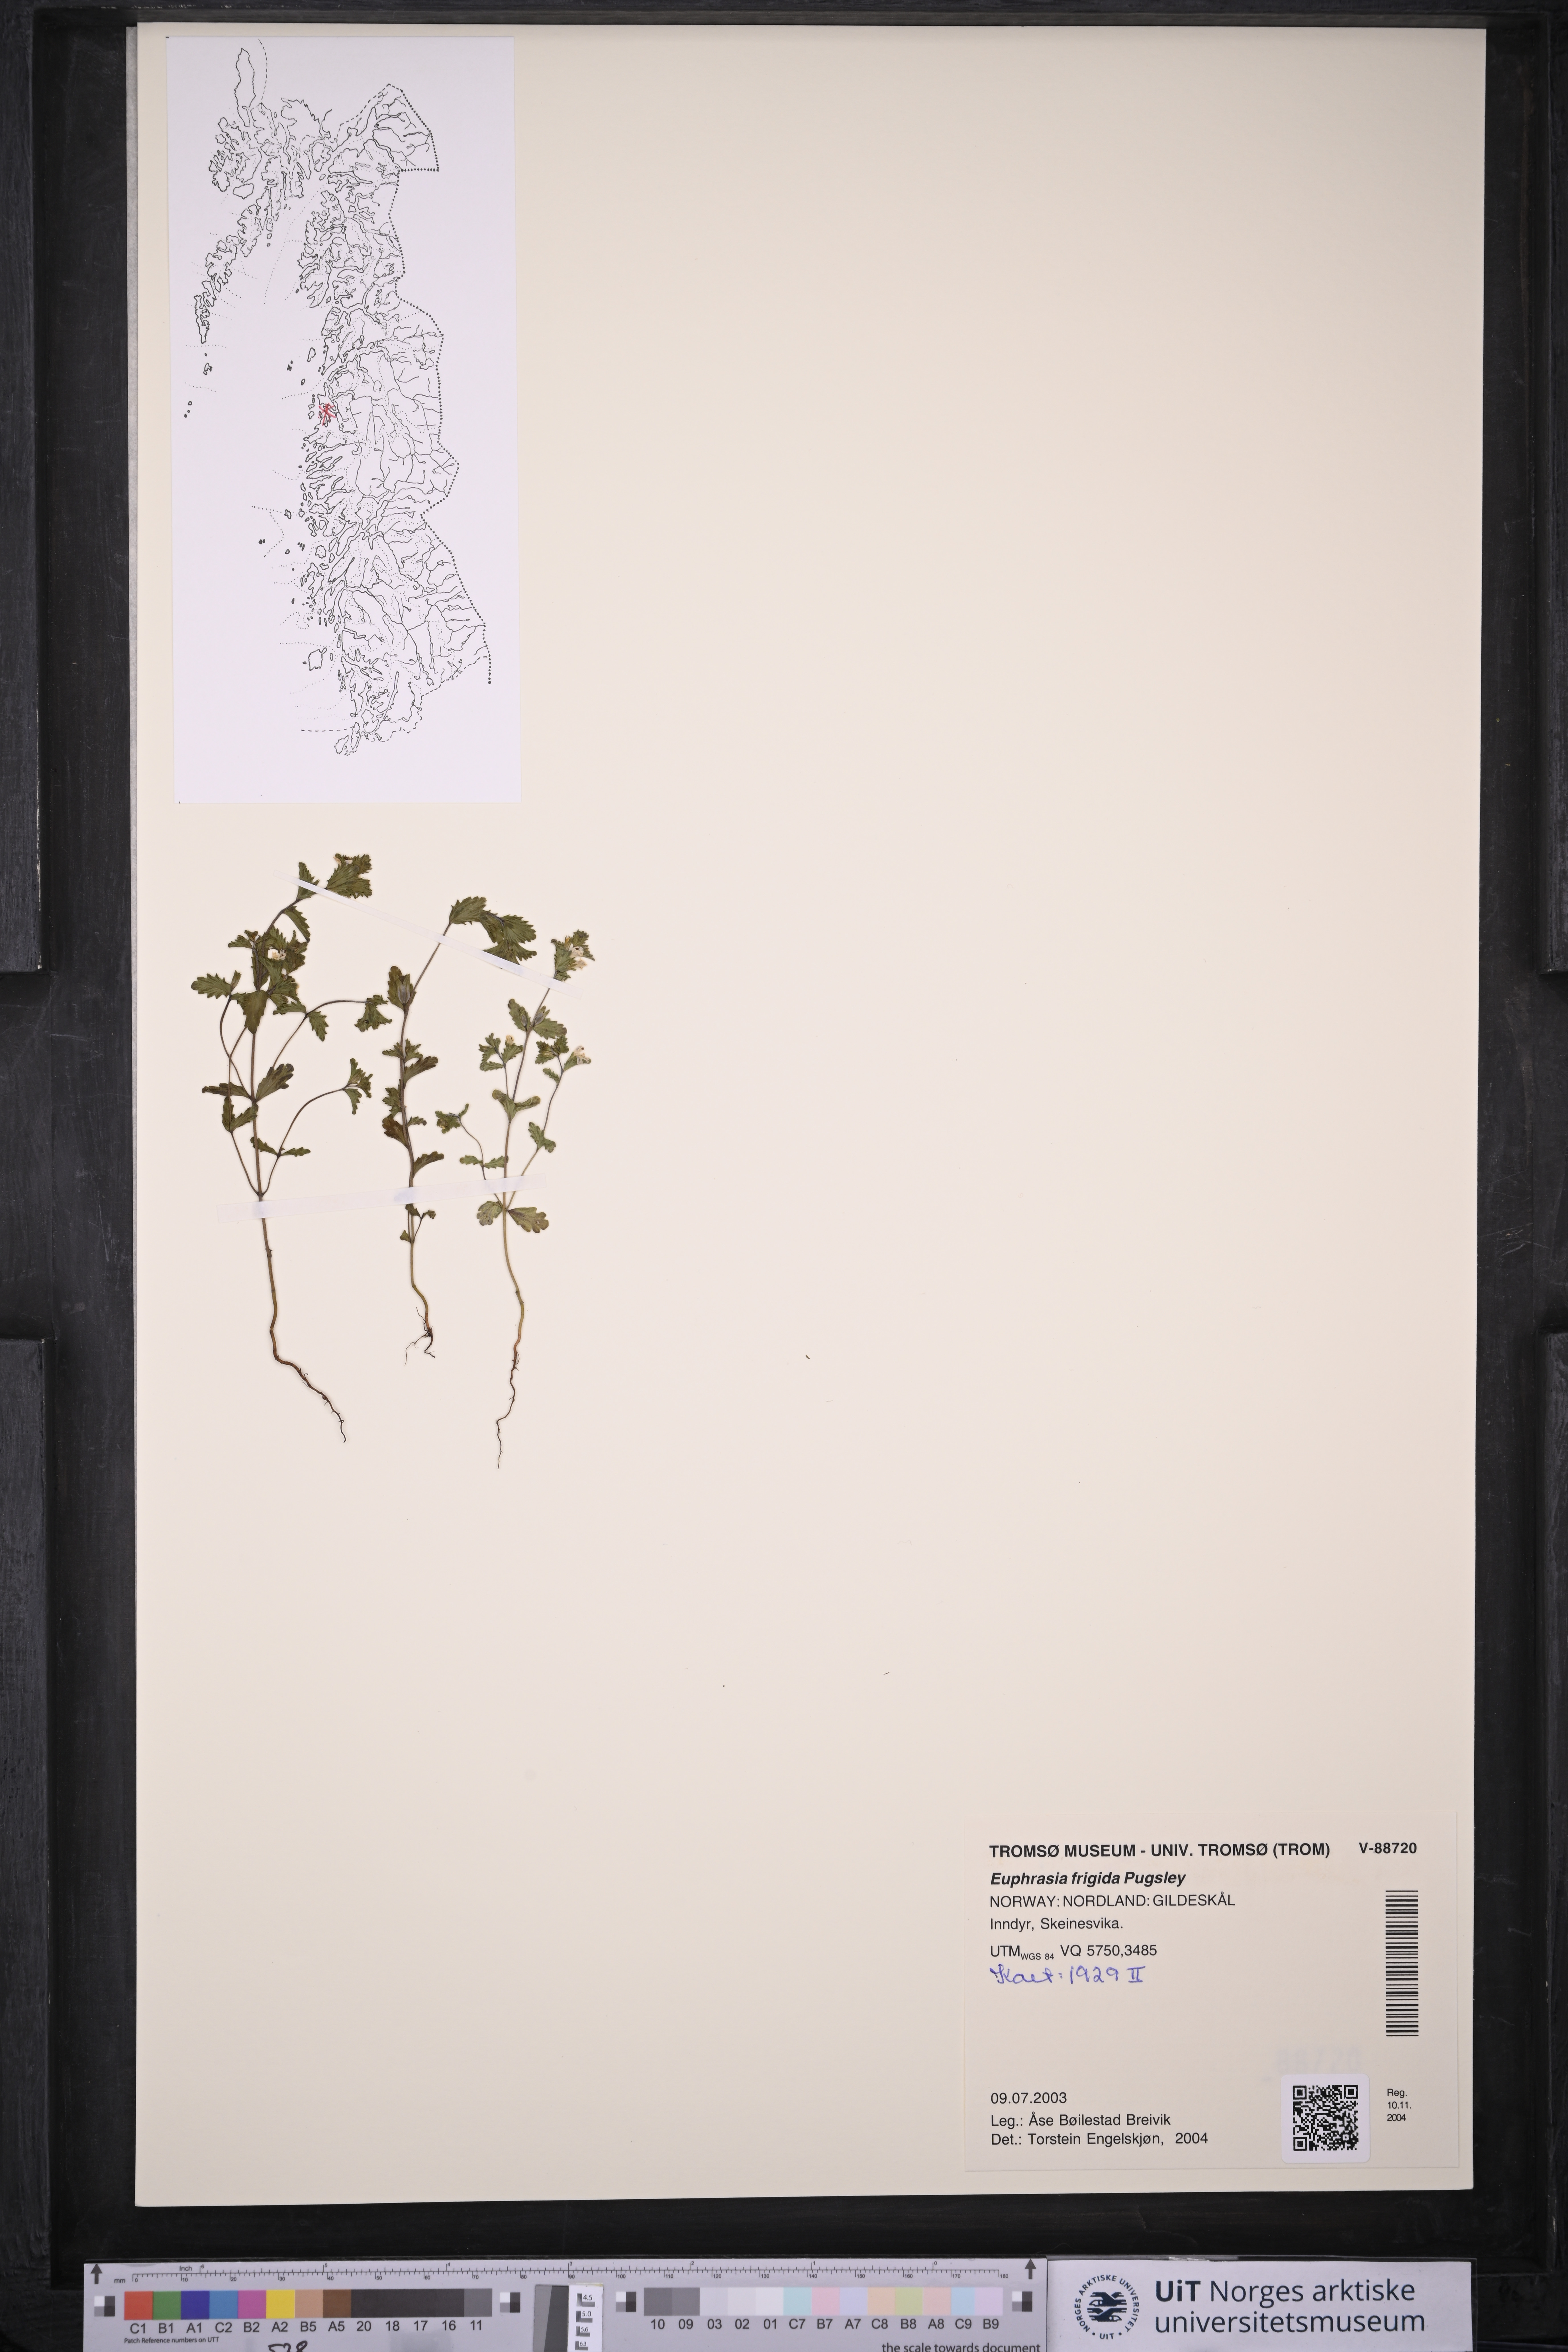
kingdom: Plantae
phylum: Tracheophyta
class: Magnoliopsida
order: Lamiales
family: Orobanchaceae
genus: Euphrasia
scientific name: Euphrasia frigida
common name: An eyebright
